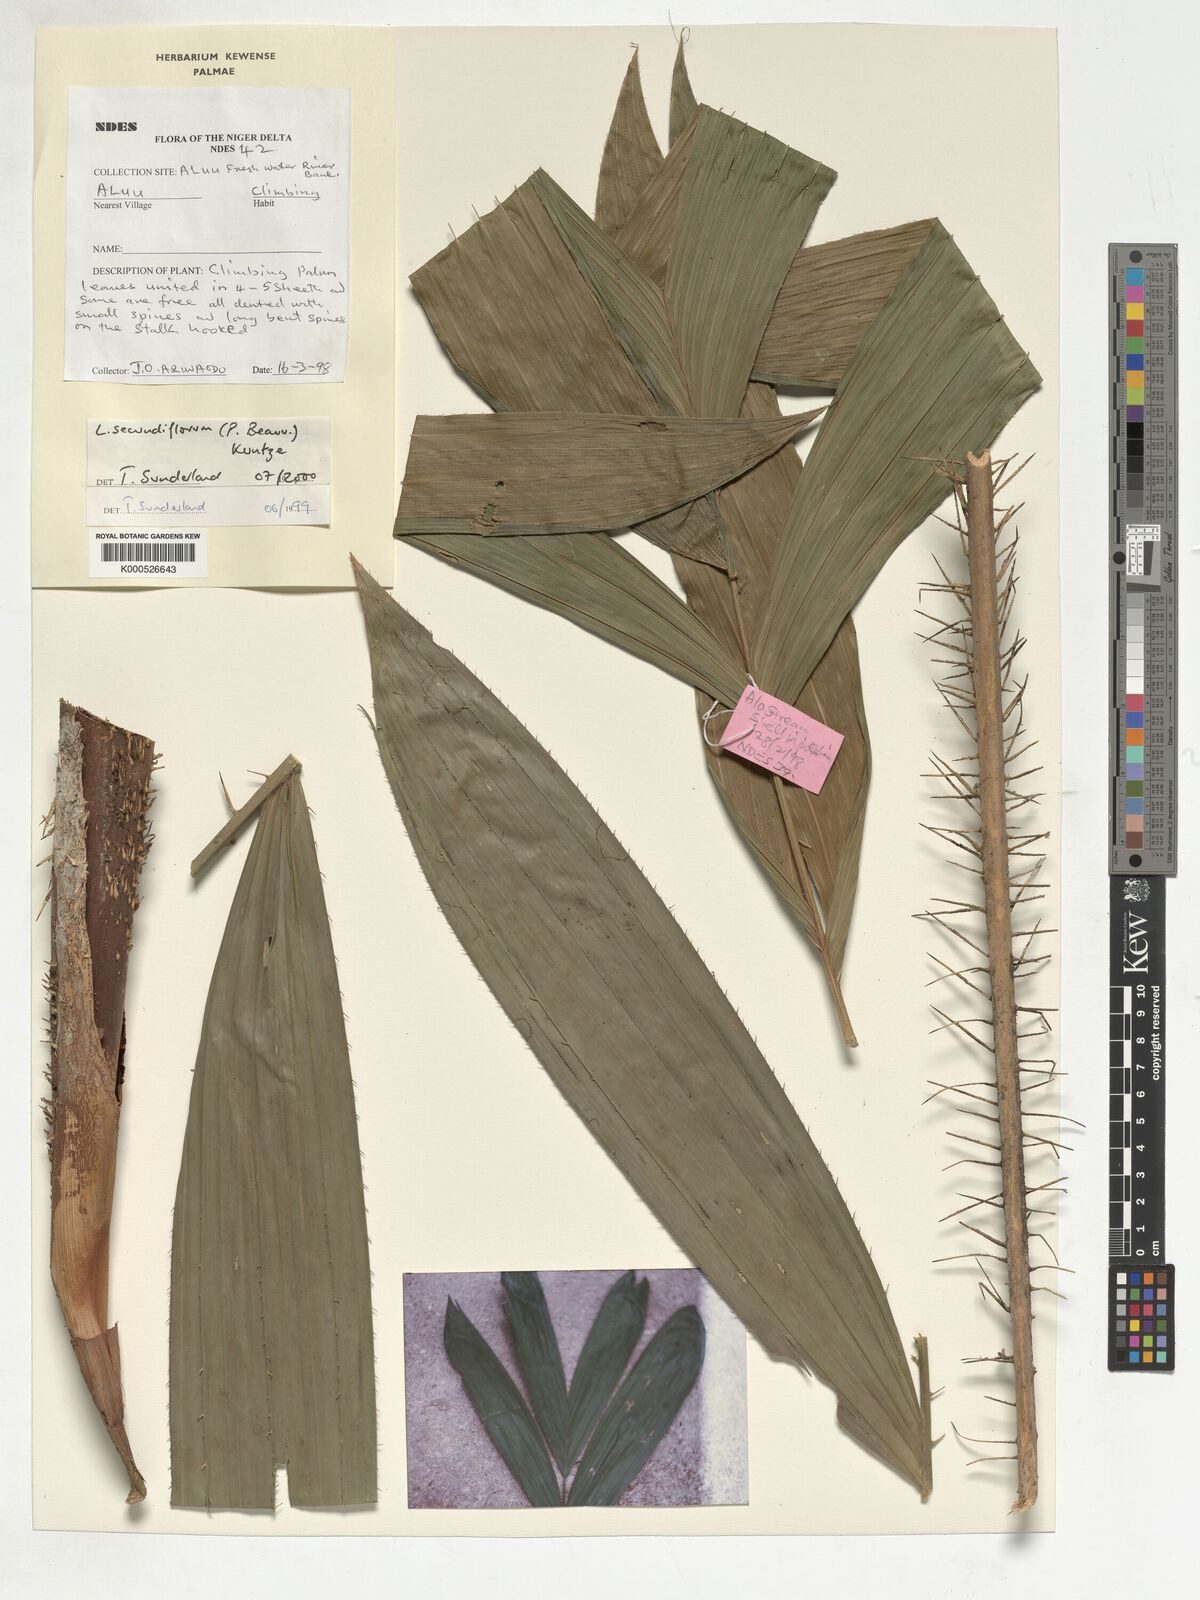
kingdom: Plantae
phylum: Tracheophyta
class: Liliopsida
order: Arecales
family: Arecaceae
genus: Laccosperma
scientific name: Laccosperma secundiflorum
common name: Rattan
